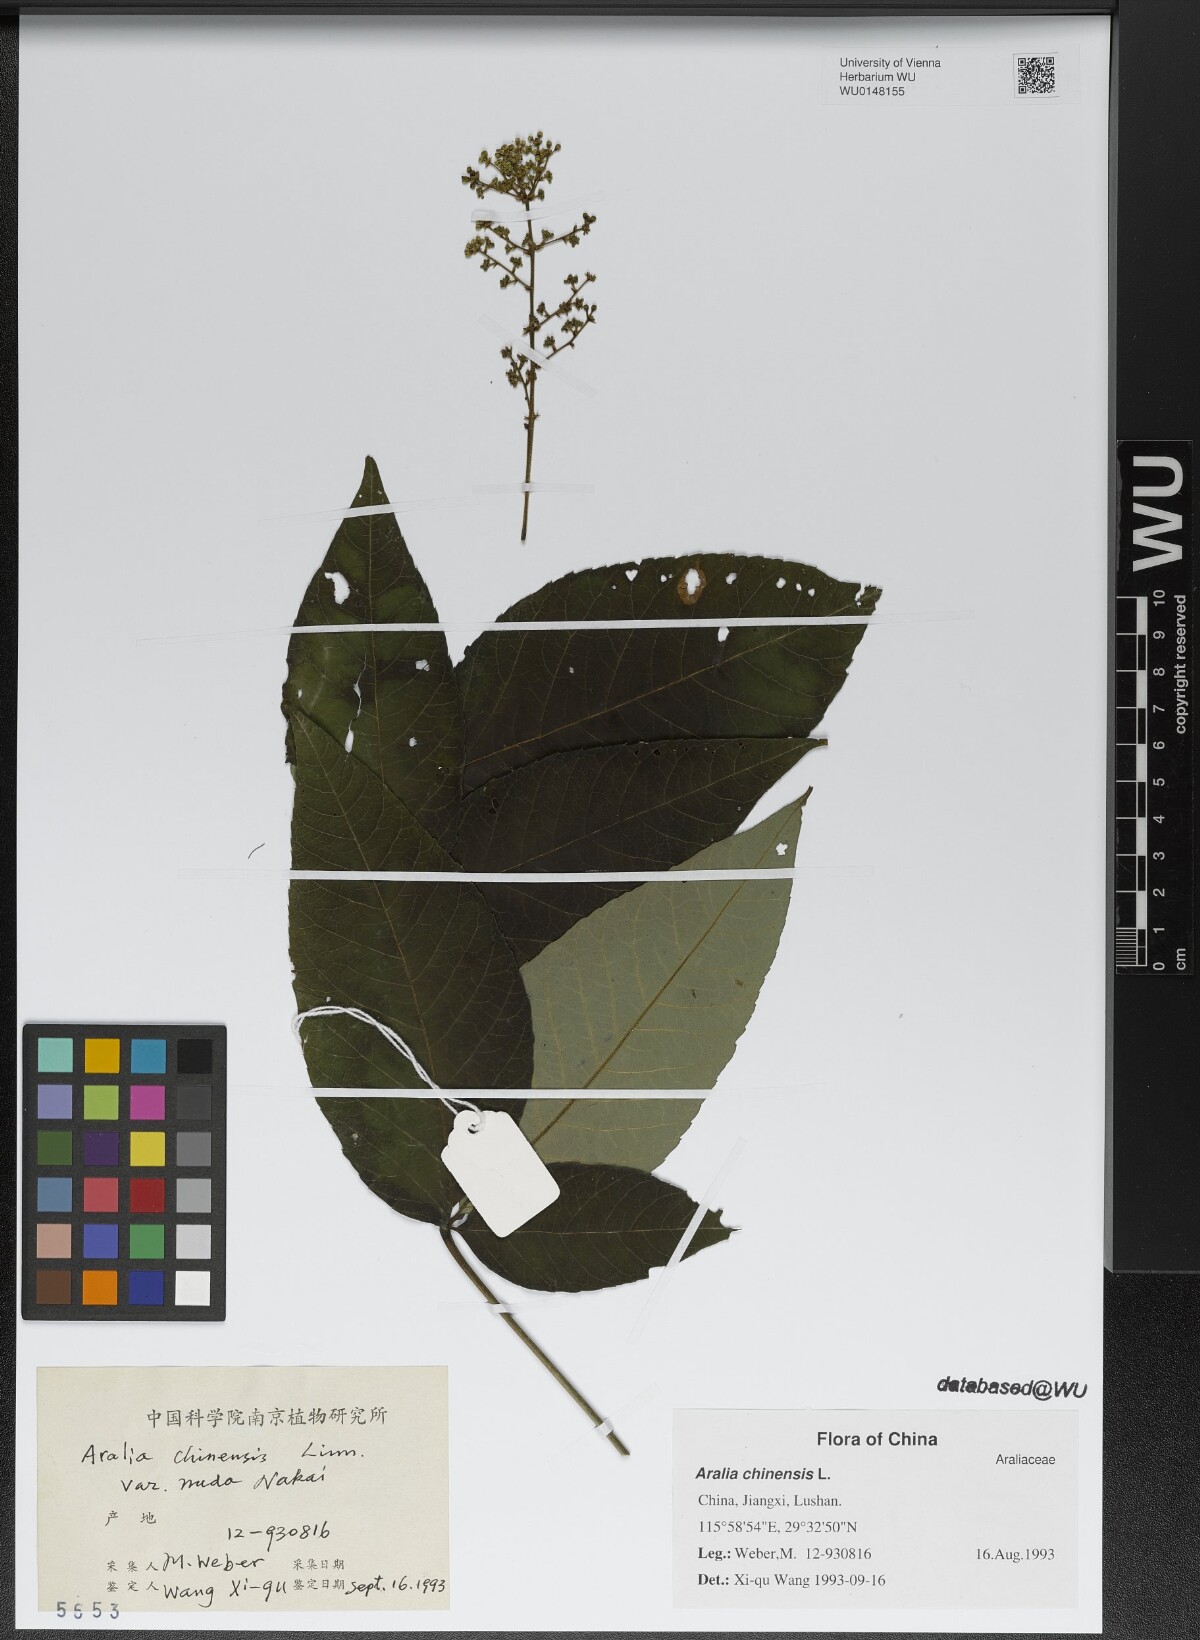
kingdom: Plantae
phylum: Tracheophyta
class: Magnoliopsida
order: Apiales
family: Araliaceae
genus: Aralia
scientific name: Aralia chinensis
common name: Chinese angelica-tree
